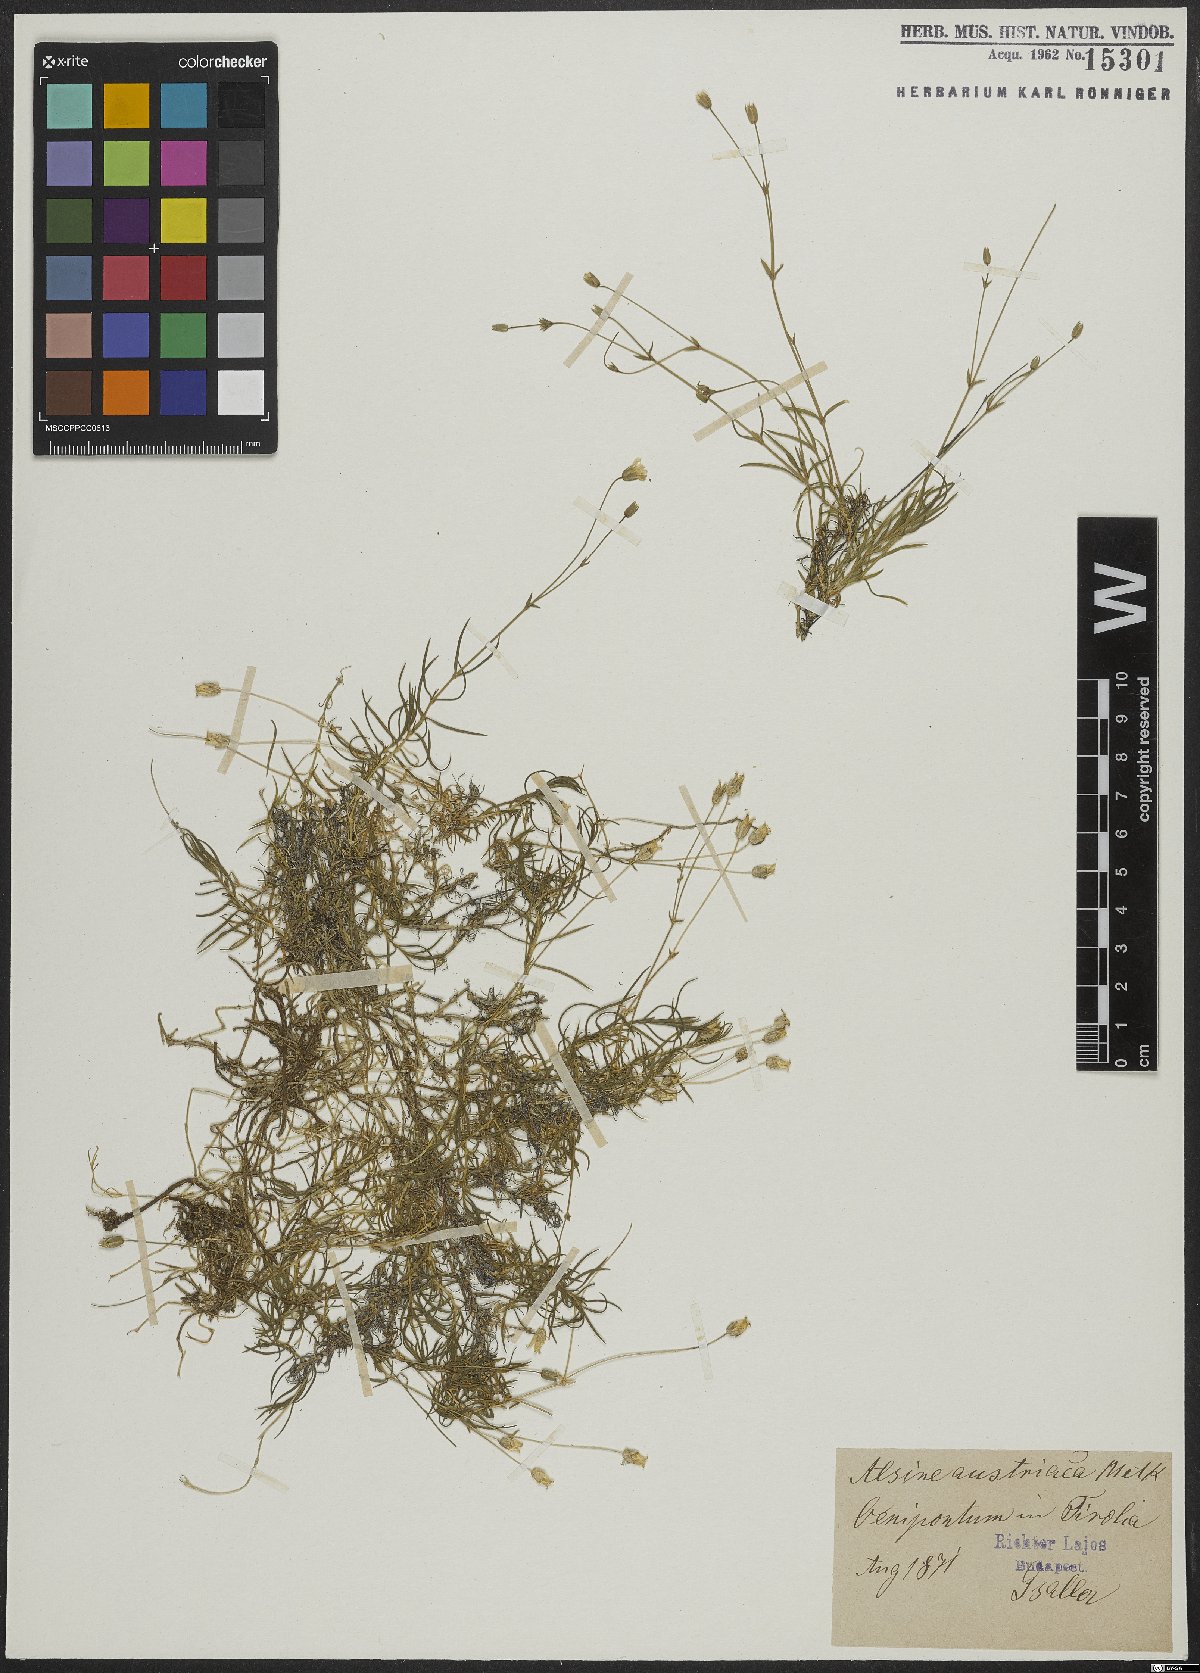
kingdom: Plantae
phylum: Tracheophyta
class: Magnoliopsida
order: Caryophyllales
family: Caryophyllaceae
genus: Sabulina
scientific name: Sabulina austriaca
